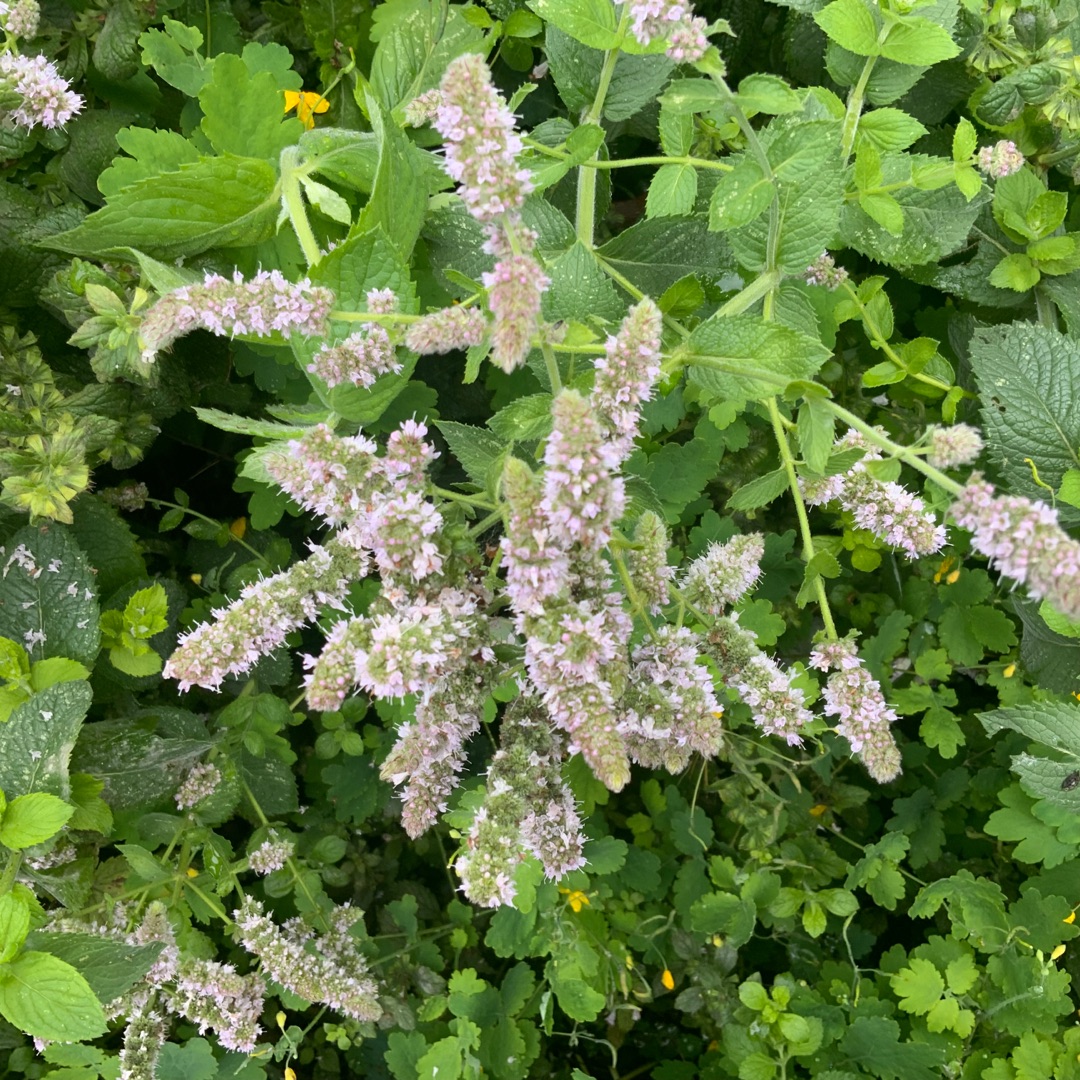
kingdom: Plantae
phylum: Tracheophyta
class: Magnoliopsida
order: Lamiales
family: Lamiaceae
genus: Mentha
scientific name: Mentha
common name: Grå mynte × grøn mynte
